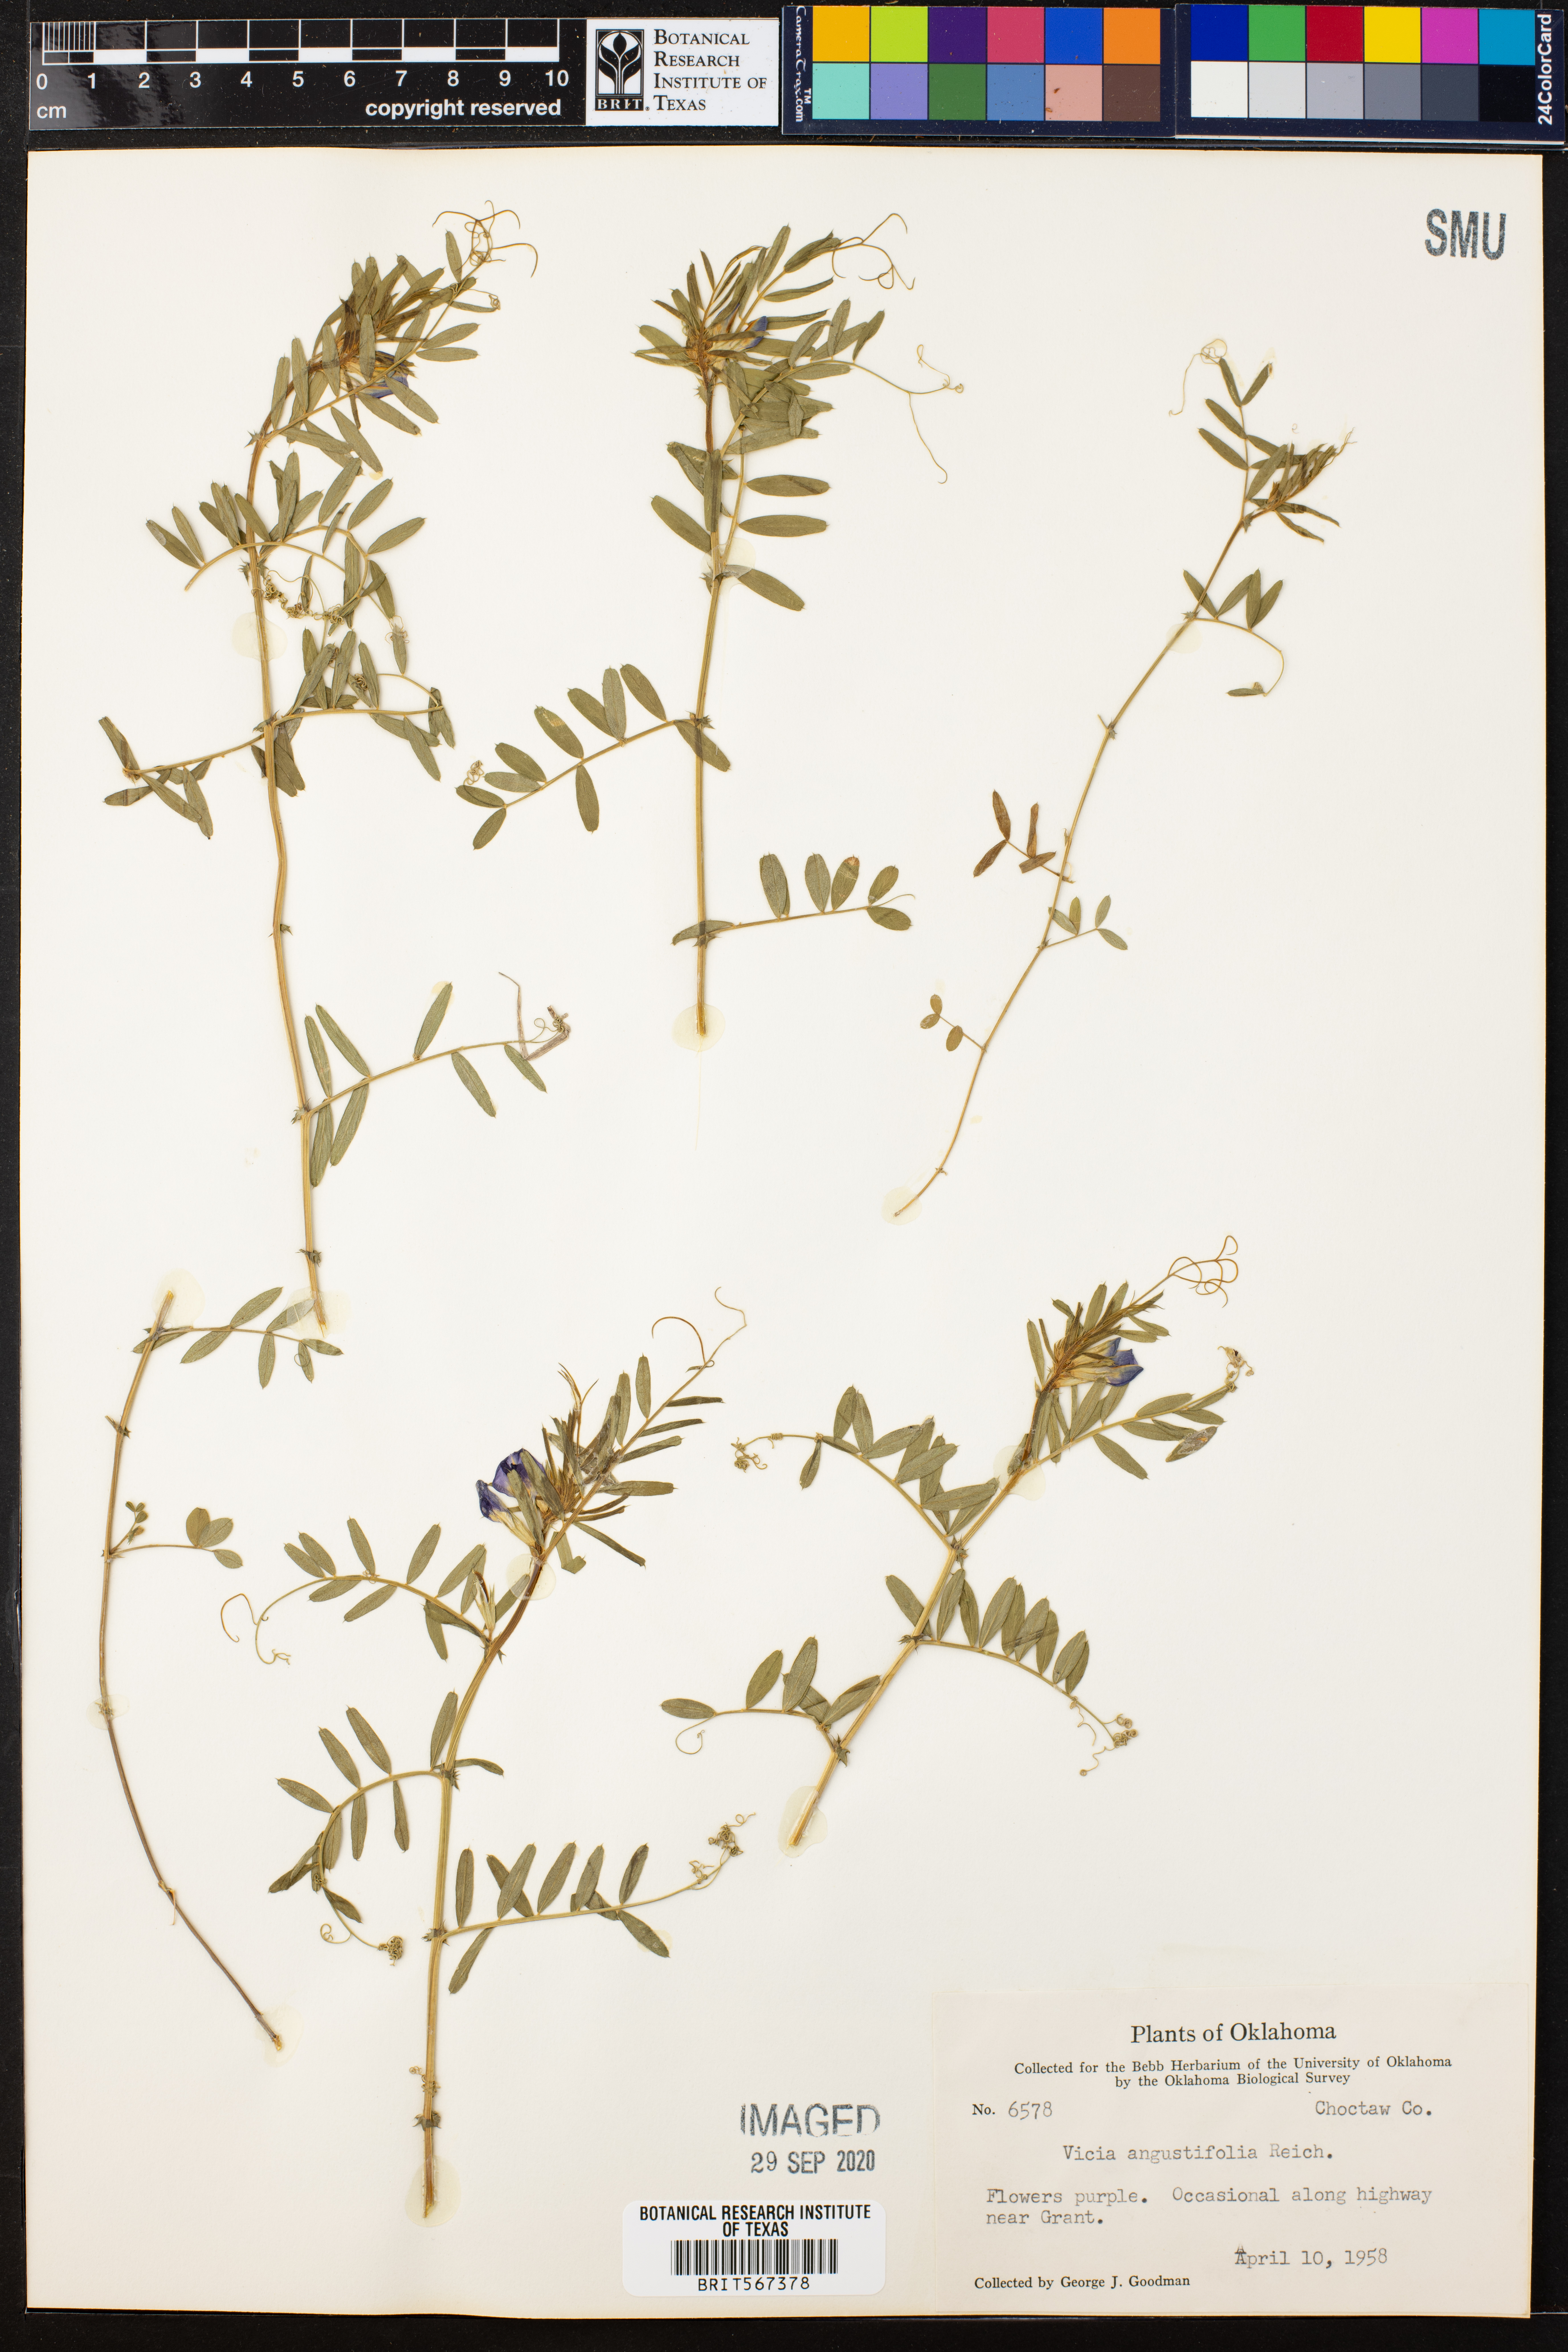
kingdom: Plantae
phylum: Tracheophyta
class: Magnoliopsida
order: Fabales
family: Fabaceae
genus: Vicia
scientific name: Vicia sativa
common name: Garden vetch
